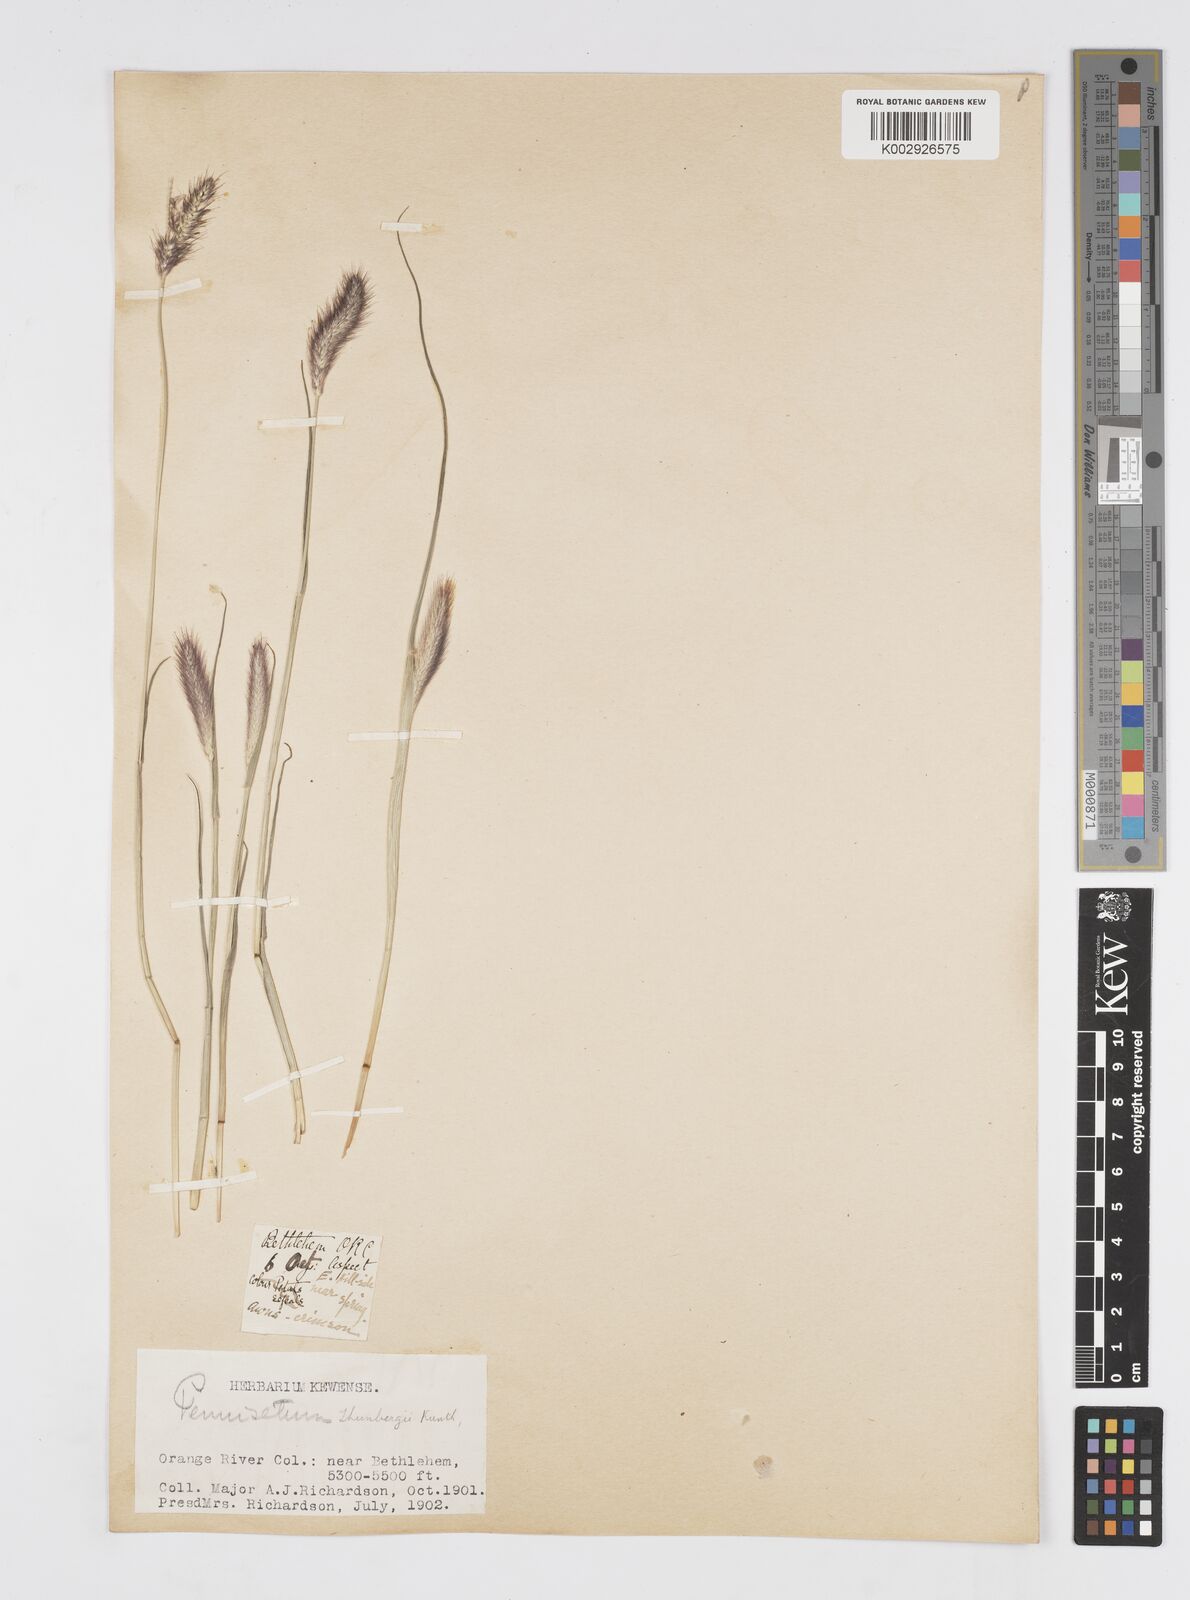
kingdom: Plantae
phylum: Tracheophyta
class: Liliopsida
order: Poales
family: Poaceae
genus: Cenchrus
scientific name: Cenchrus geniculatus
